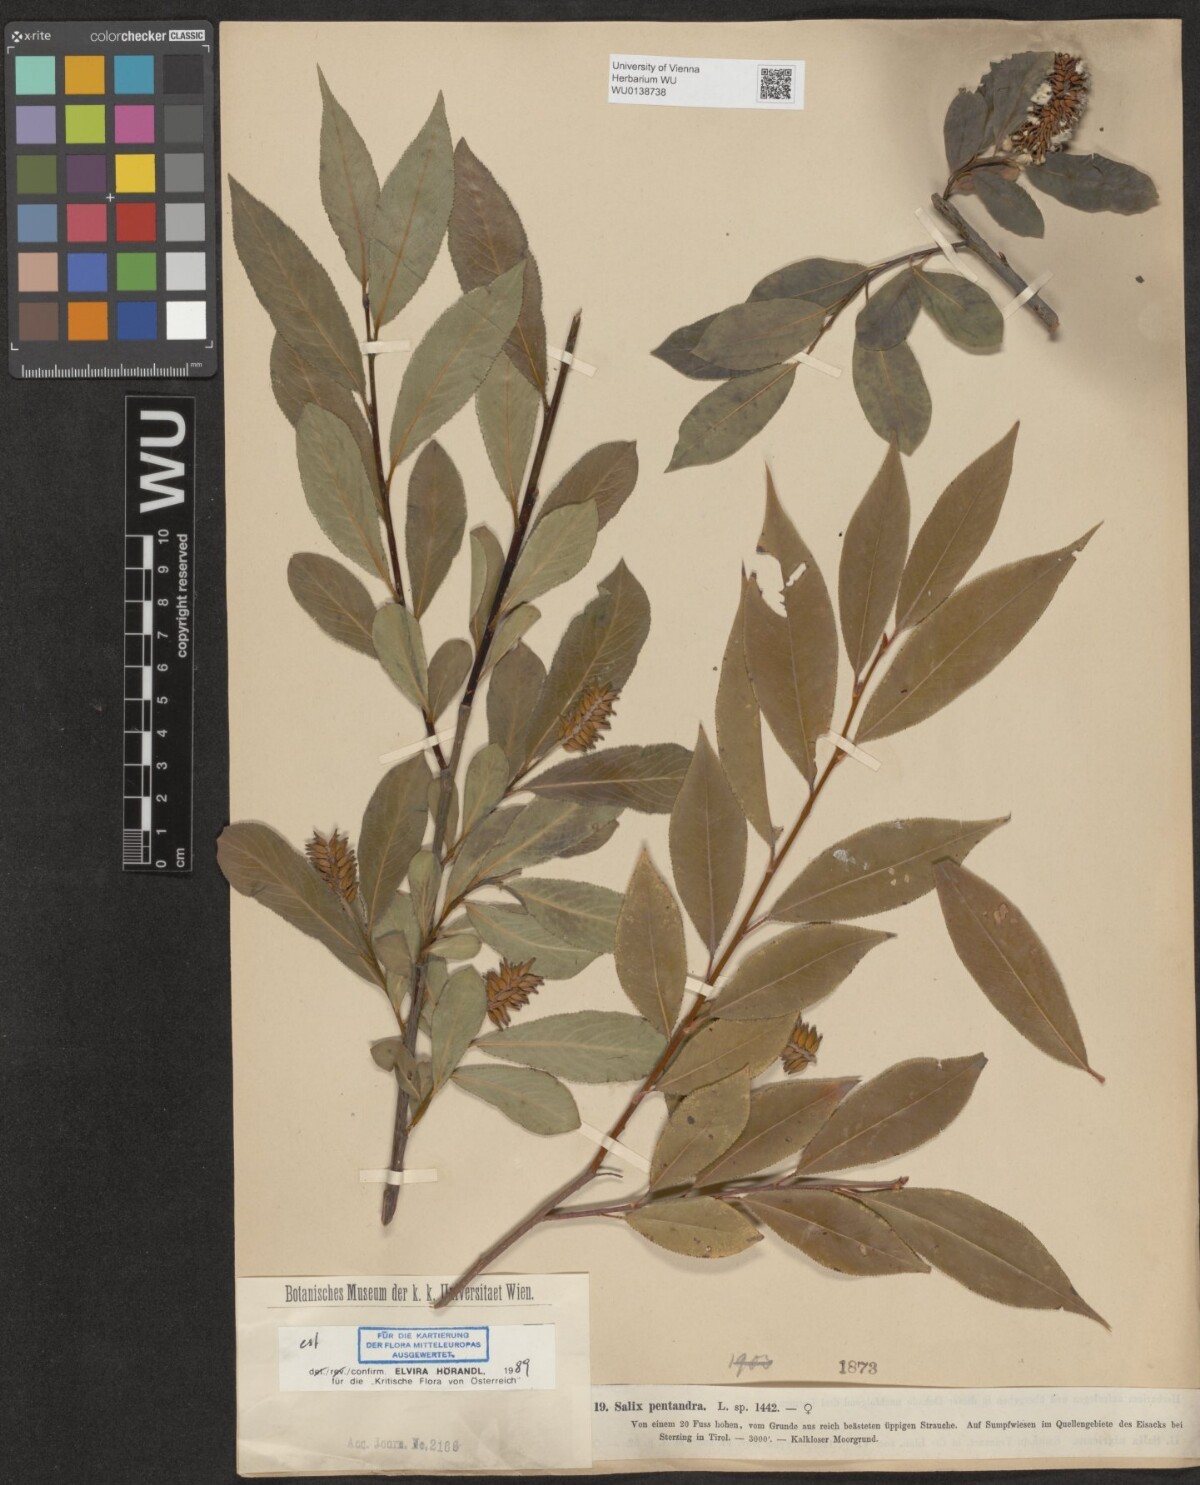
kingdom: Plantae
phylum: Tracheophyta
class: Magnoliopsida
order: Malpighiales
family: Salicaceae
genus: Salix
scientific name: Salix pentandra
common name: Bay willow
